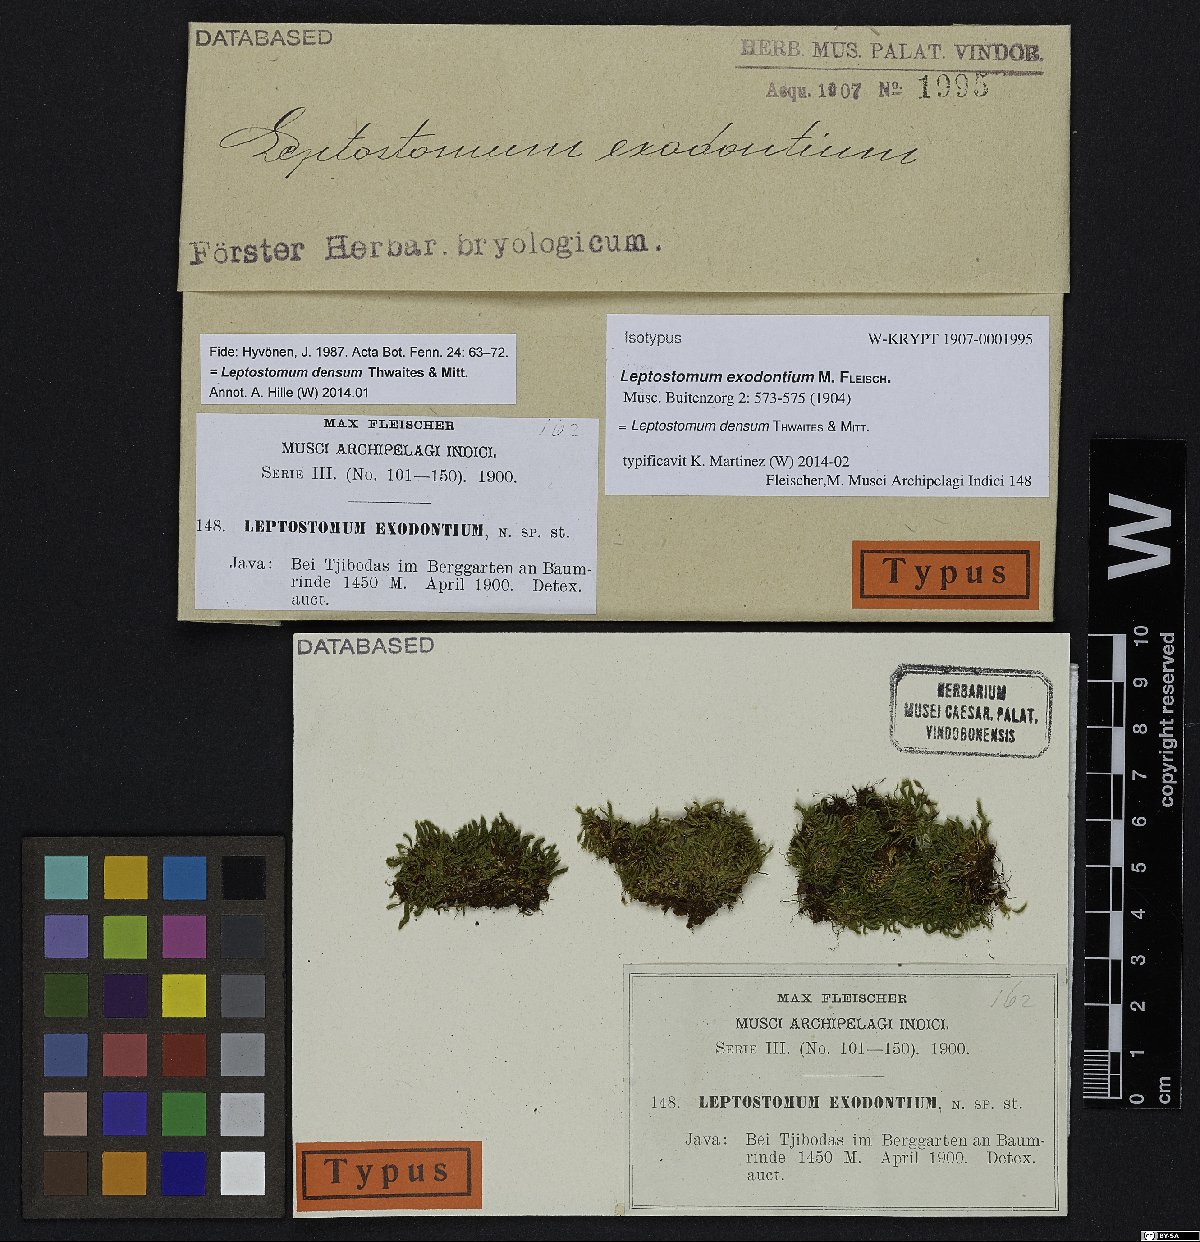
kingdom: Plantae
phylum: Bryophyta
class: Bryopsida
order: Bryales
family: Leptostomataceae
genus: Leptostomum
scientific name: Leptostomum densum
